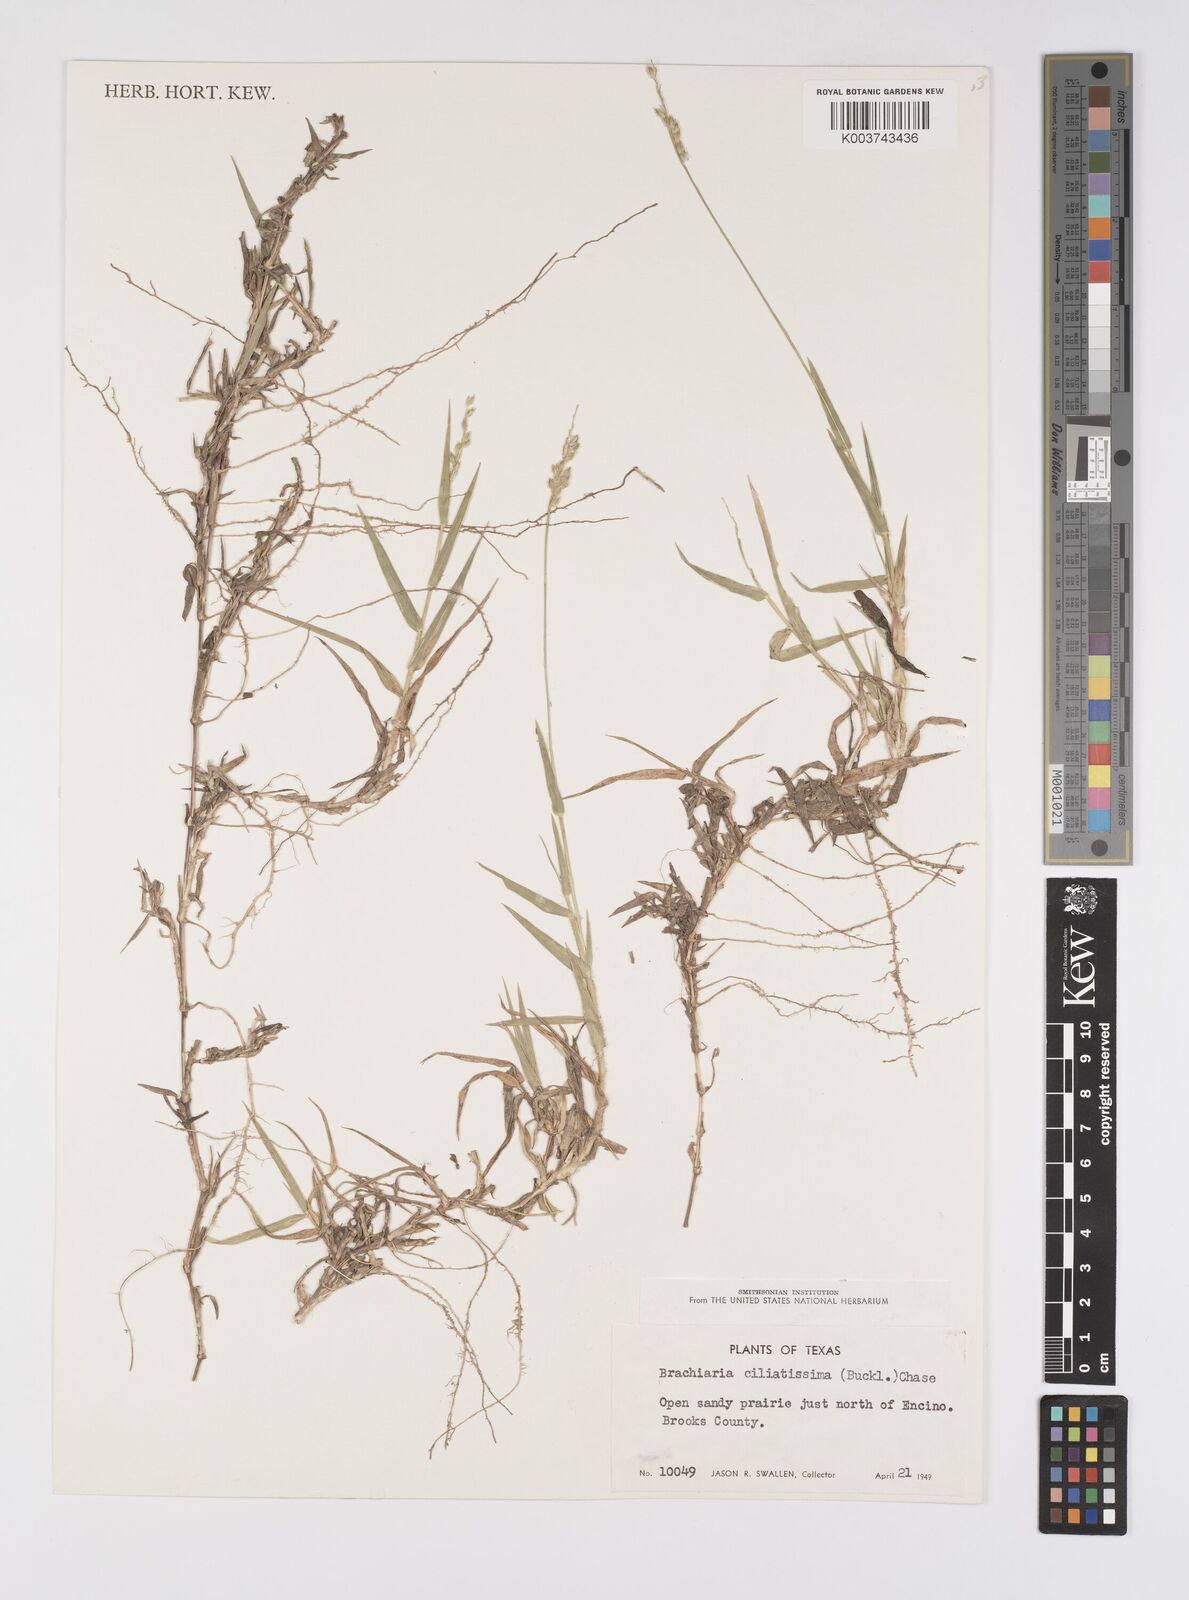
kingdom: Plantae
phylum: Tracheophyta
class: Liliopsida
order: Poales
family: Poaceae
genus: Urochloa
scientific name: Urochloa ciliatissima
